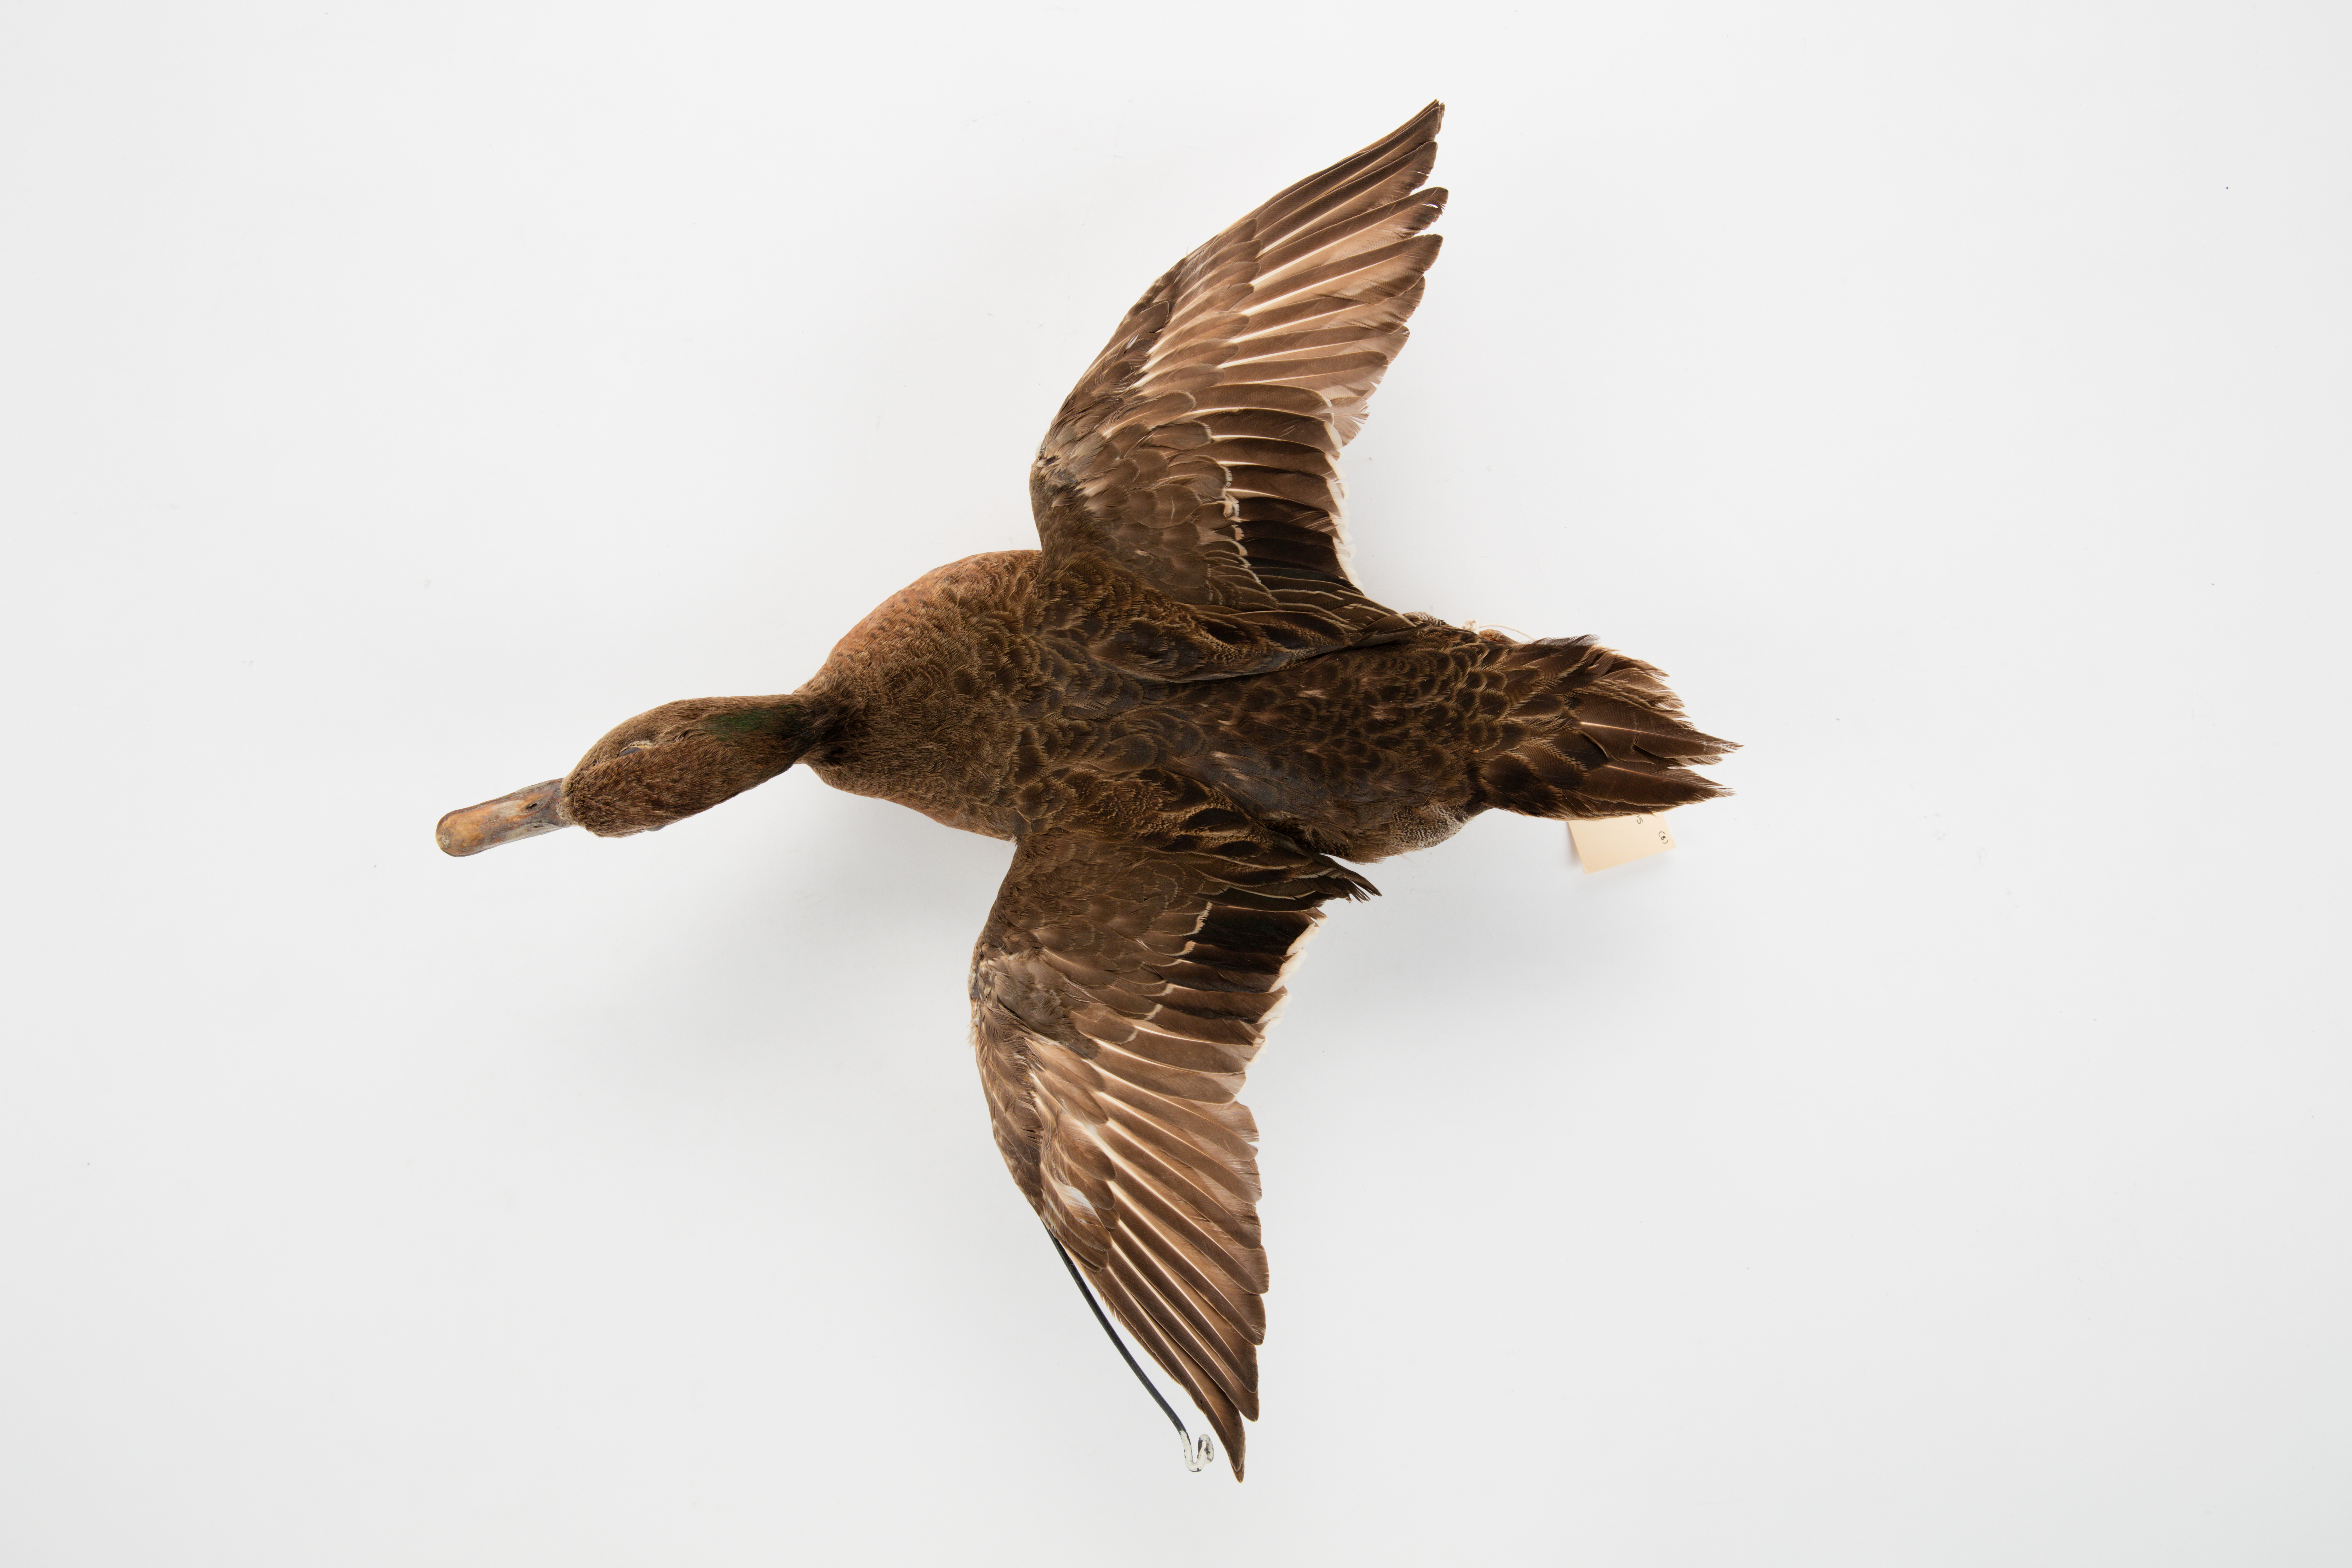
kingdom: Animalia
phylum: Chordata
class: Aves
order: Anseriformes
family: Anatidae
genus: Anas
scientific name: Anas chlorotis
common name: Brown teal
